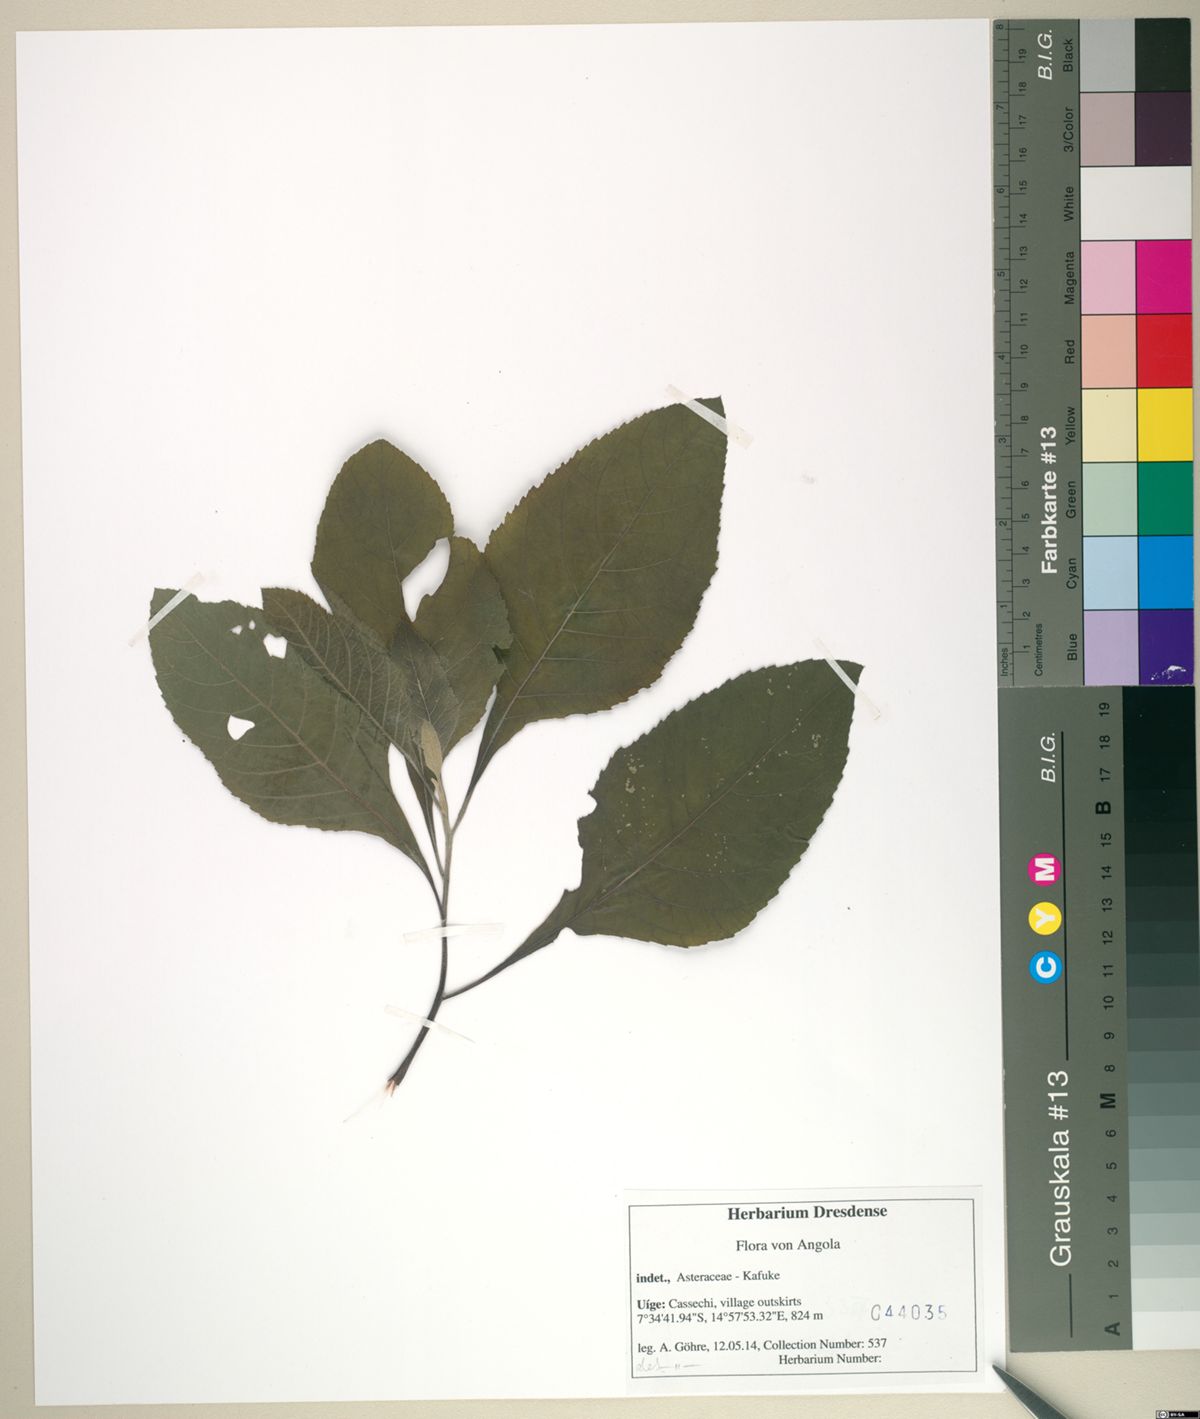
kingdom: Plantae
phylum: Tracheophyta
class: Magnoliopsida
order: Asterales
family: Asteraceae
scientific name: Asteraceae
